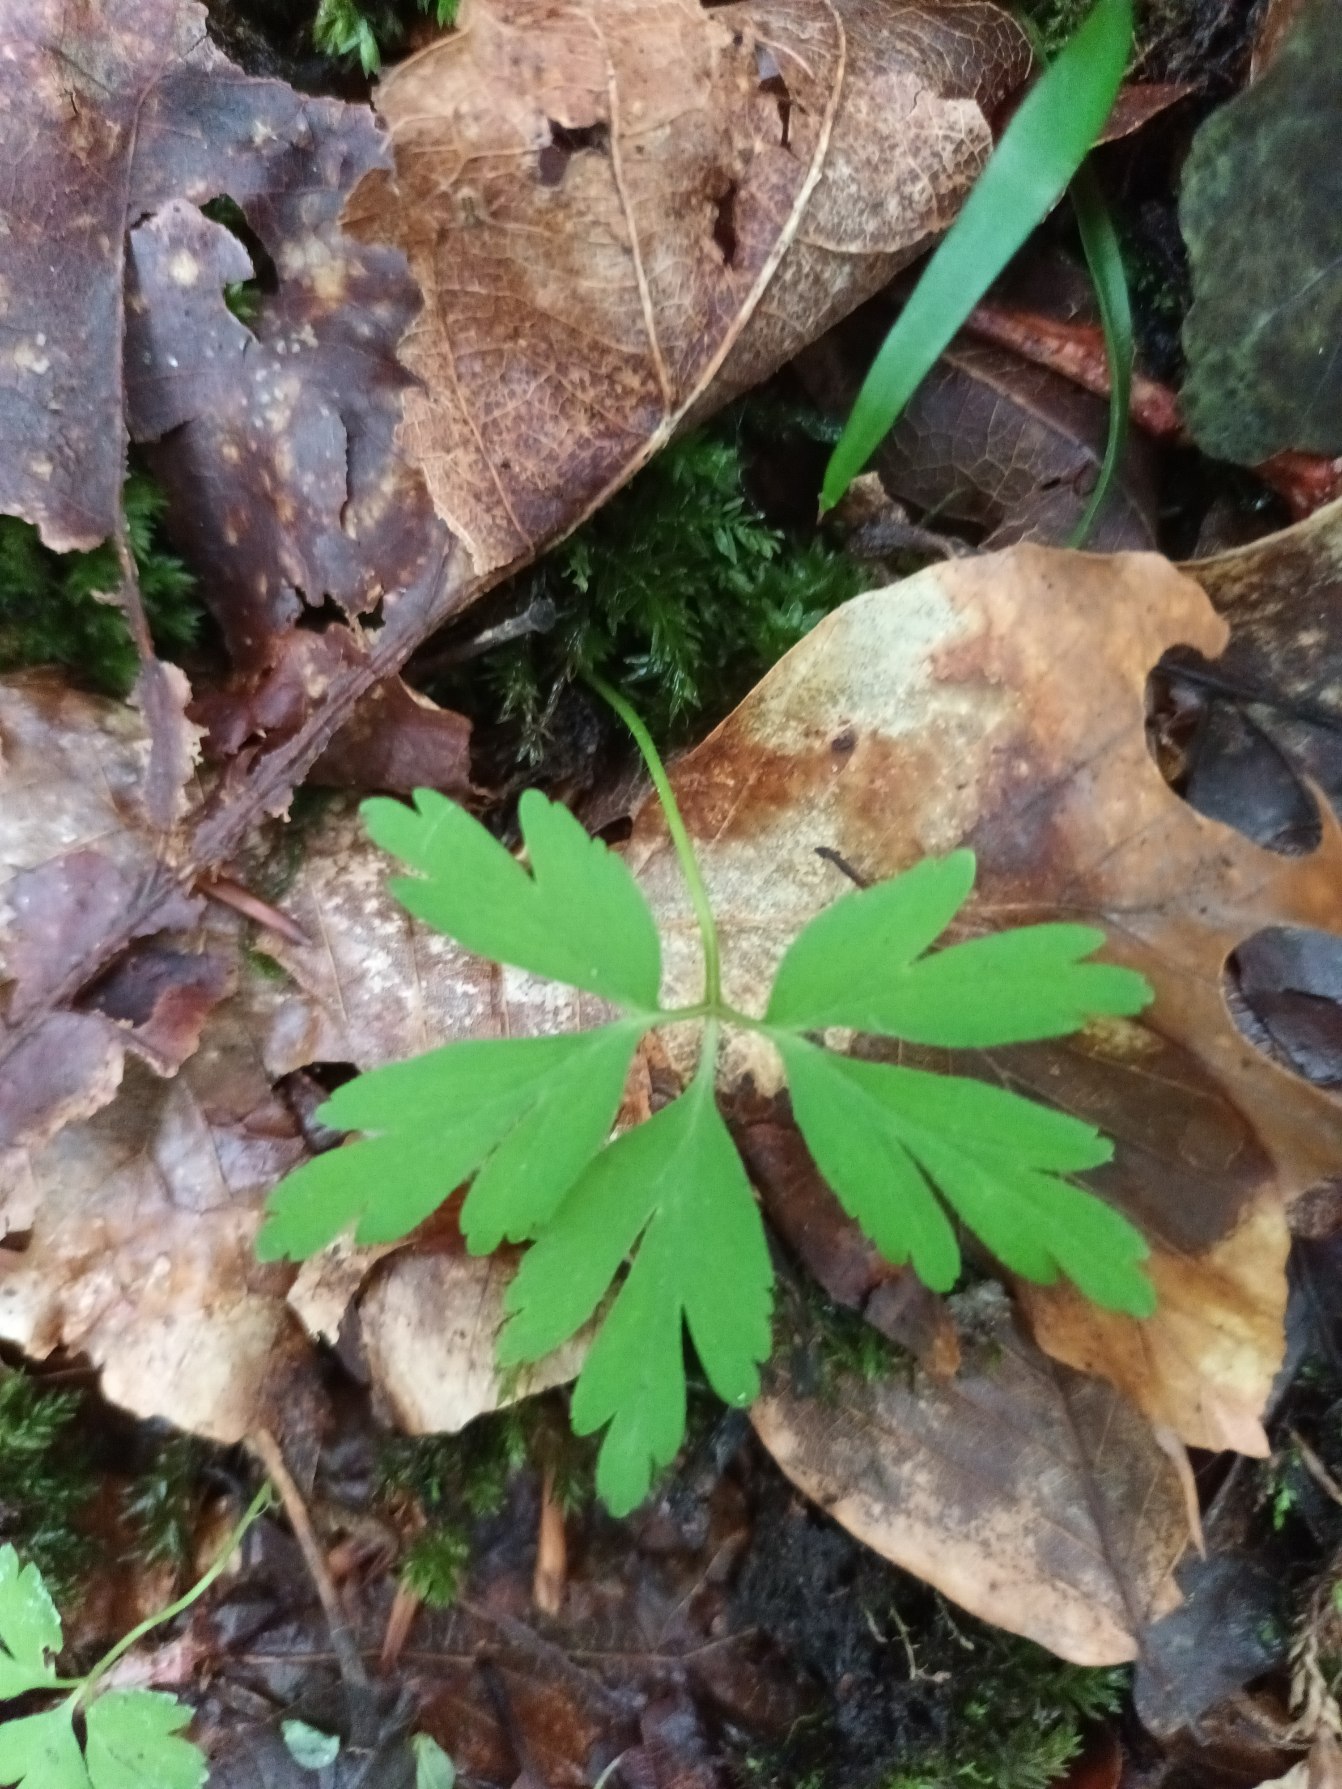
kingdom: Plantae
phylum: Tracheophyta
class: Magnoliopsida
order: Ranunculales
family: Ranunculaceae
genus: Anemone
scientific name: Anemone nemorosa
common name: Hvid anemone
